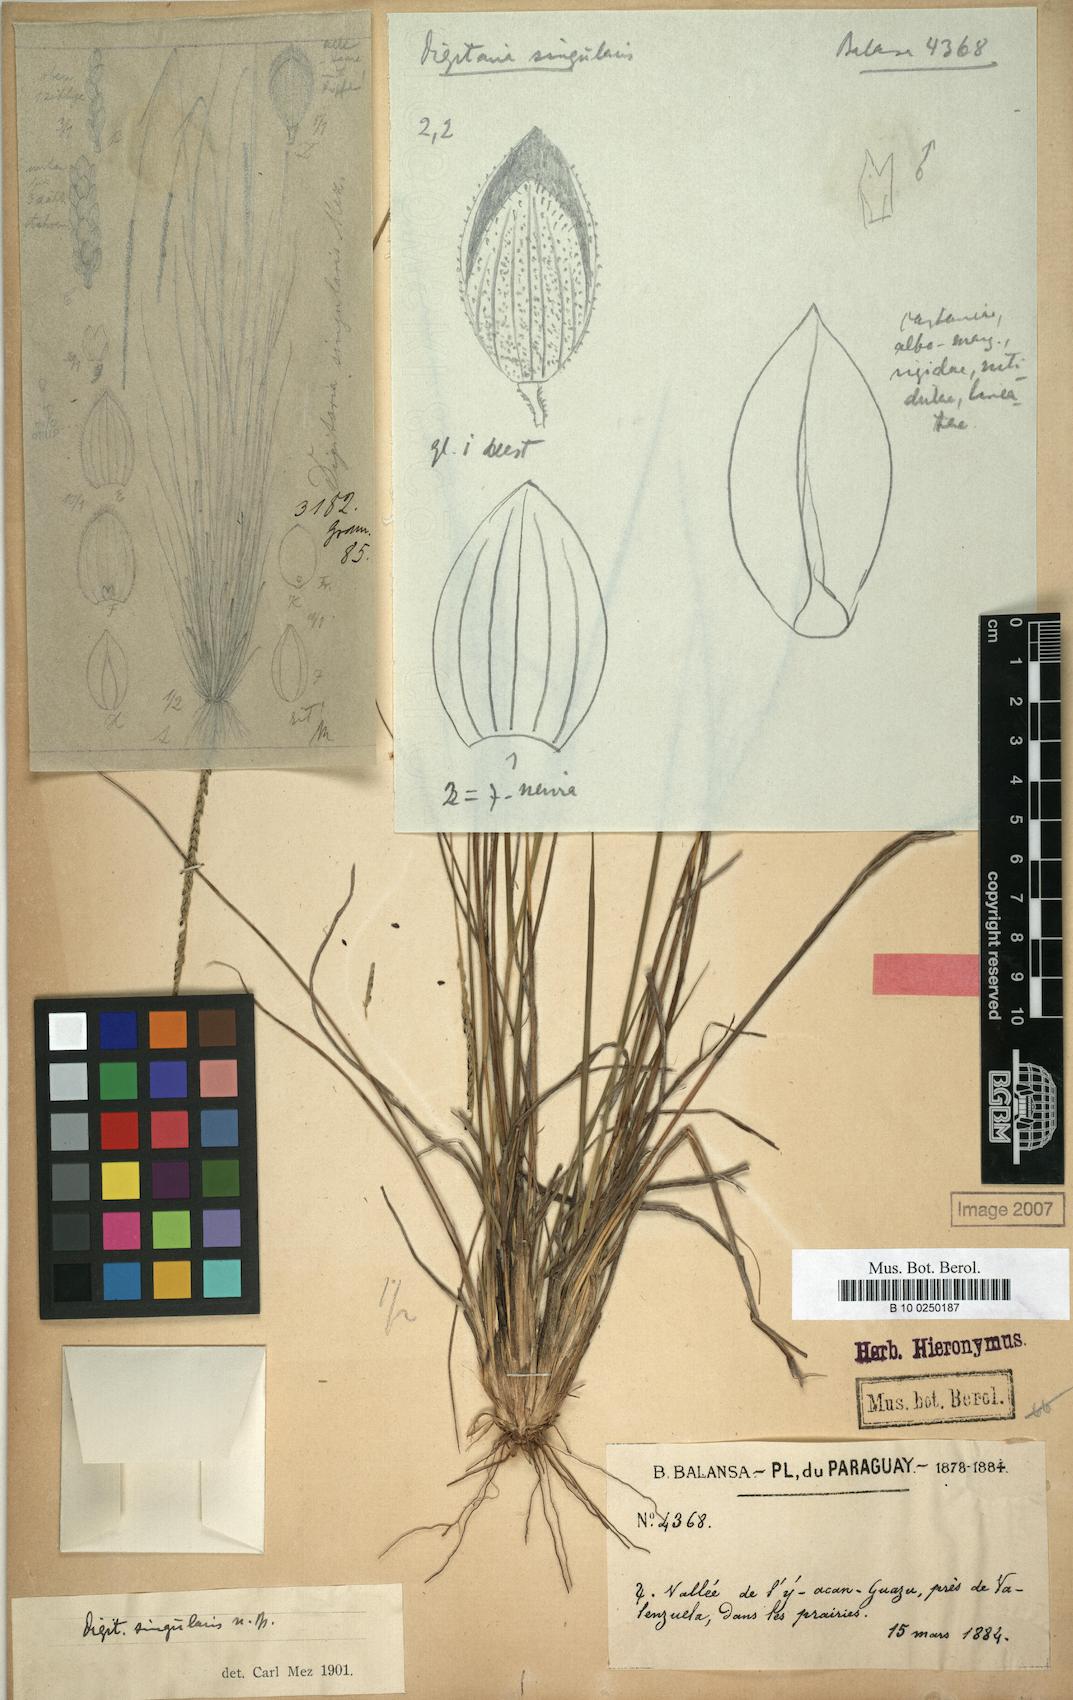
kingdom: Plantae
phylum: Tracheophyta
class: Liliopsida
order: Poales
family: Poaceae
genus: Digitaria
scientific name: Digitaria singularis
